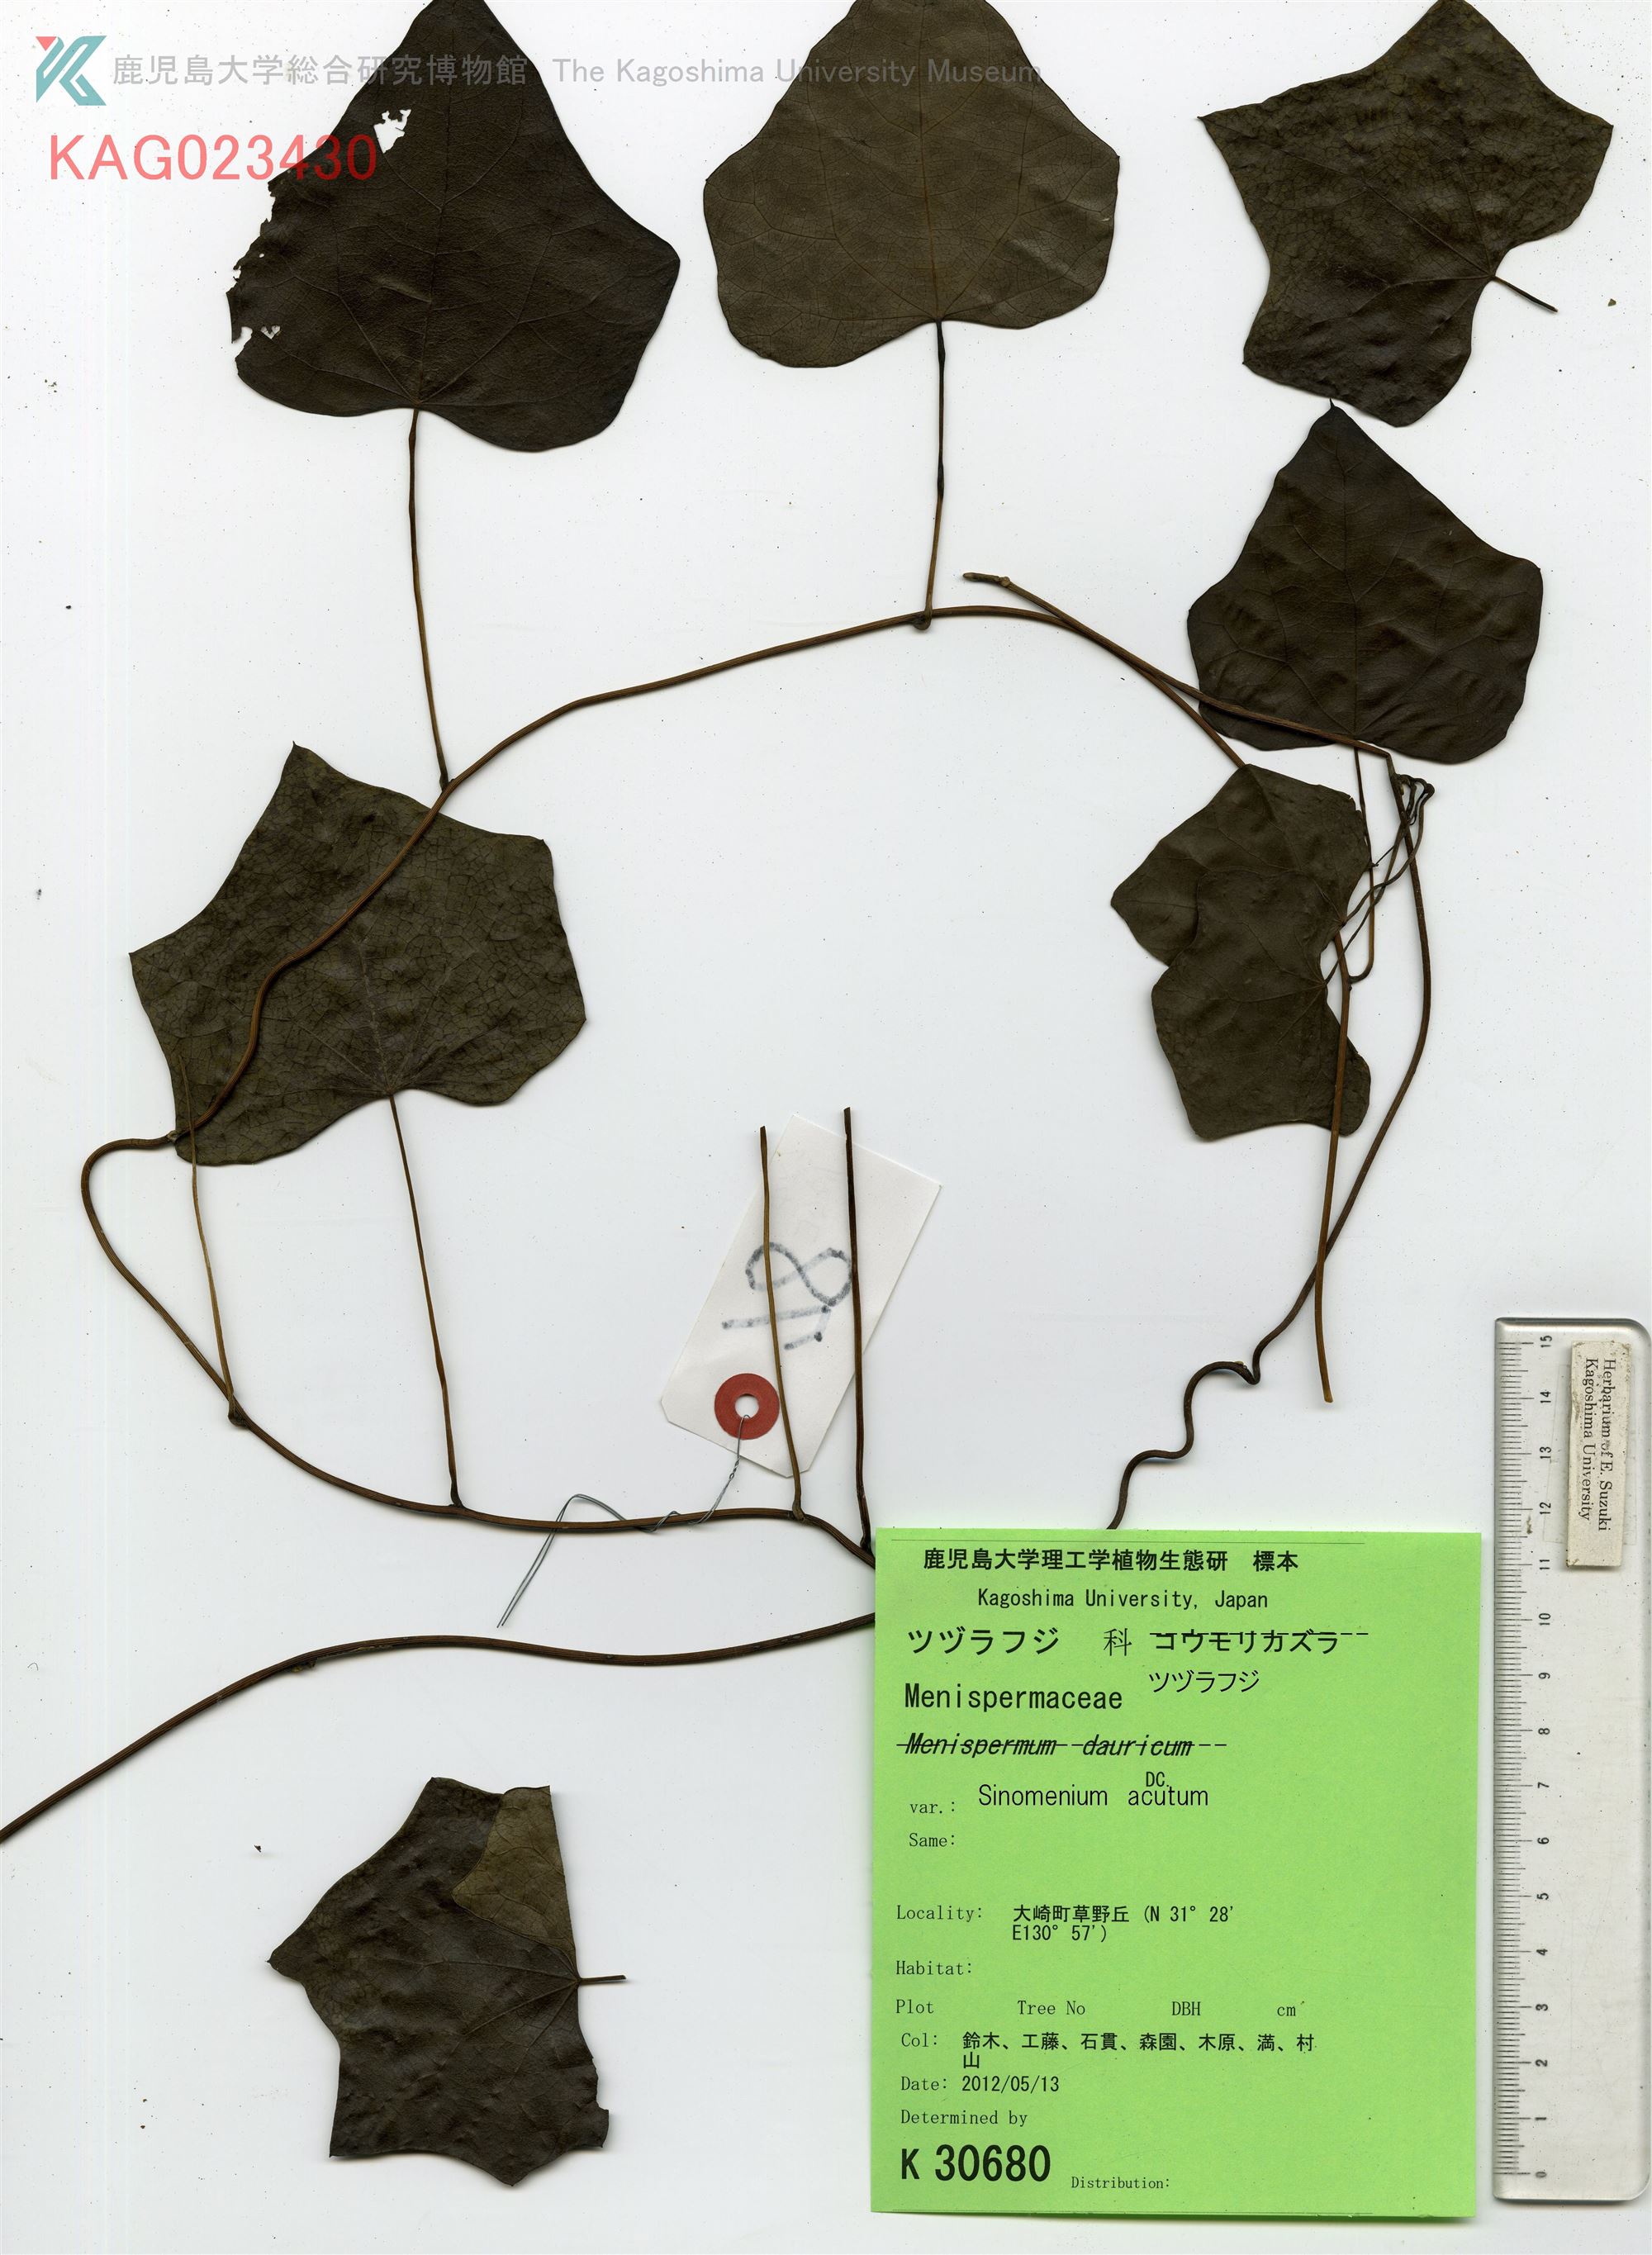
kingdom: Plantae
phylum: Tracheophyta
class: Magnoliopsida
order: Ranunculales
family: Menispermaceae
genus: Sinomenium
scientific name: Sinomenium acutum
